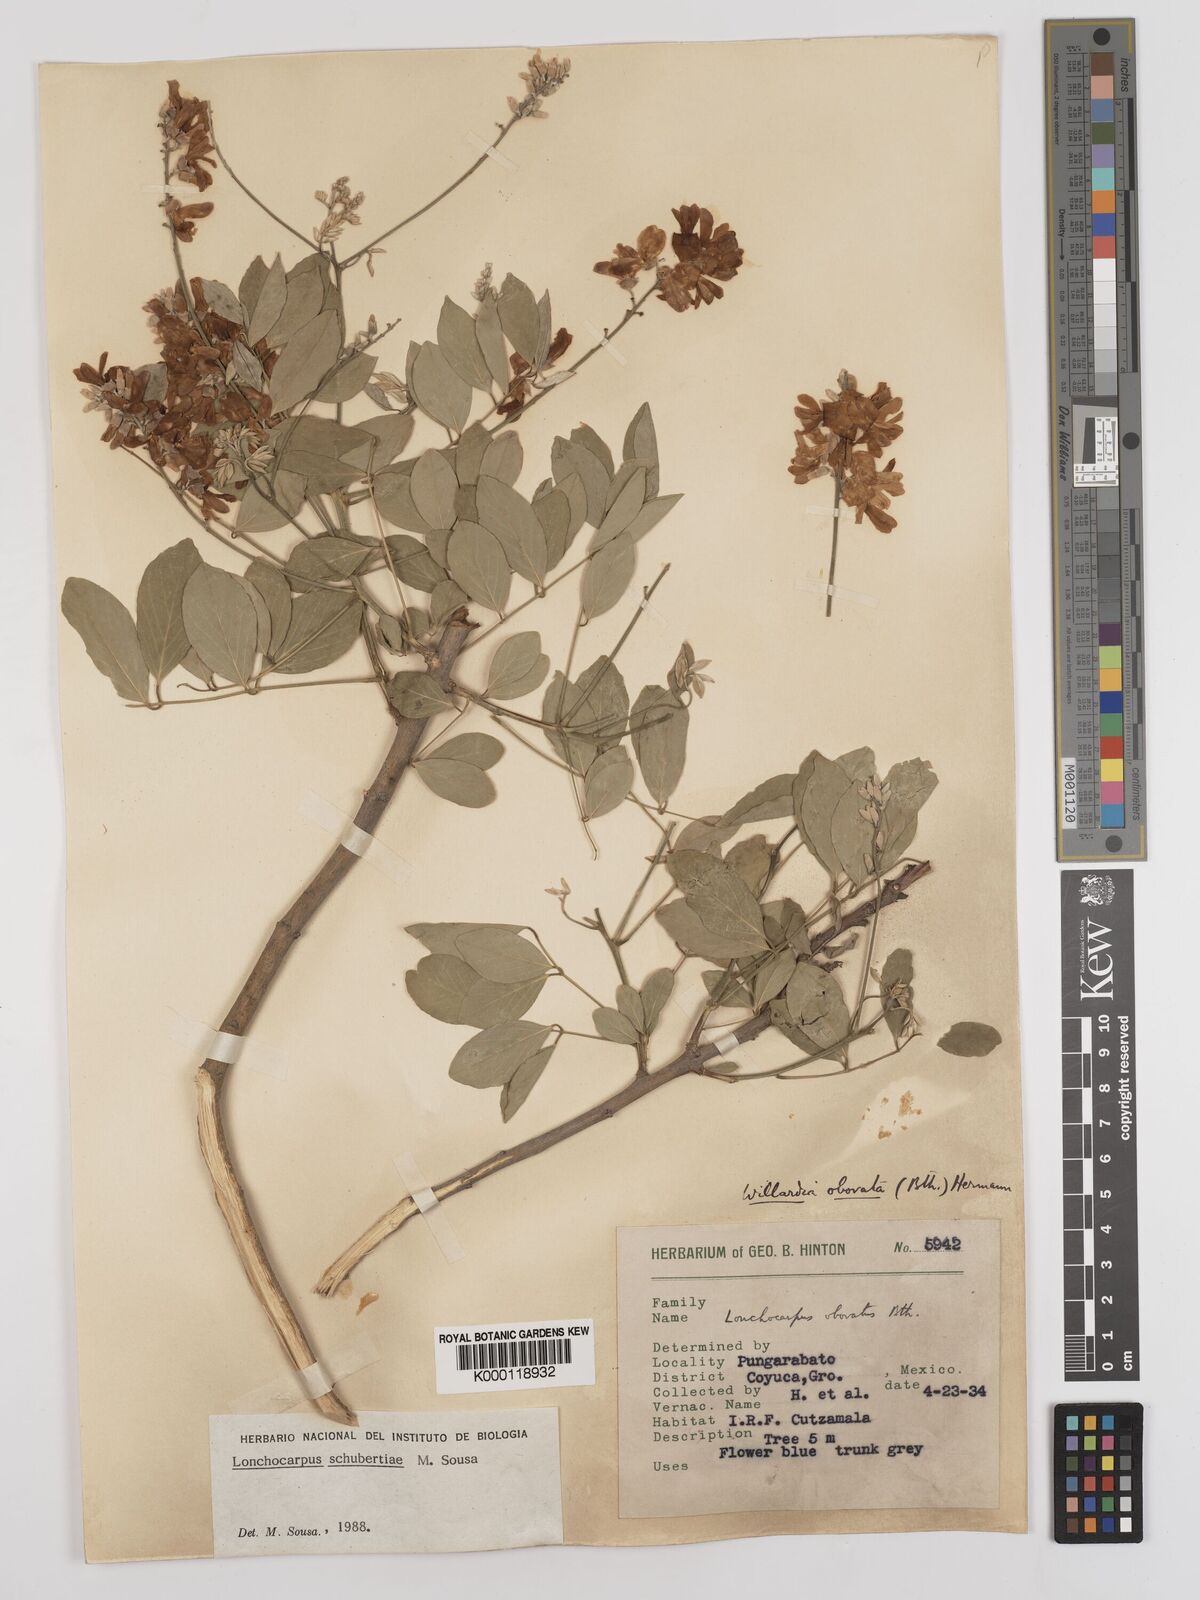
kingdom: Plantae
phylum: Tracheophyta
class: Magnoliopsida
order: Fabales
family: Fabaceae
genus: Lonchocarpus
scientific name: Lonchocarpus schubertiae
